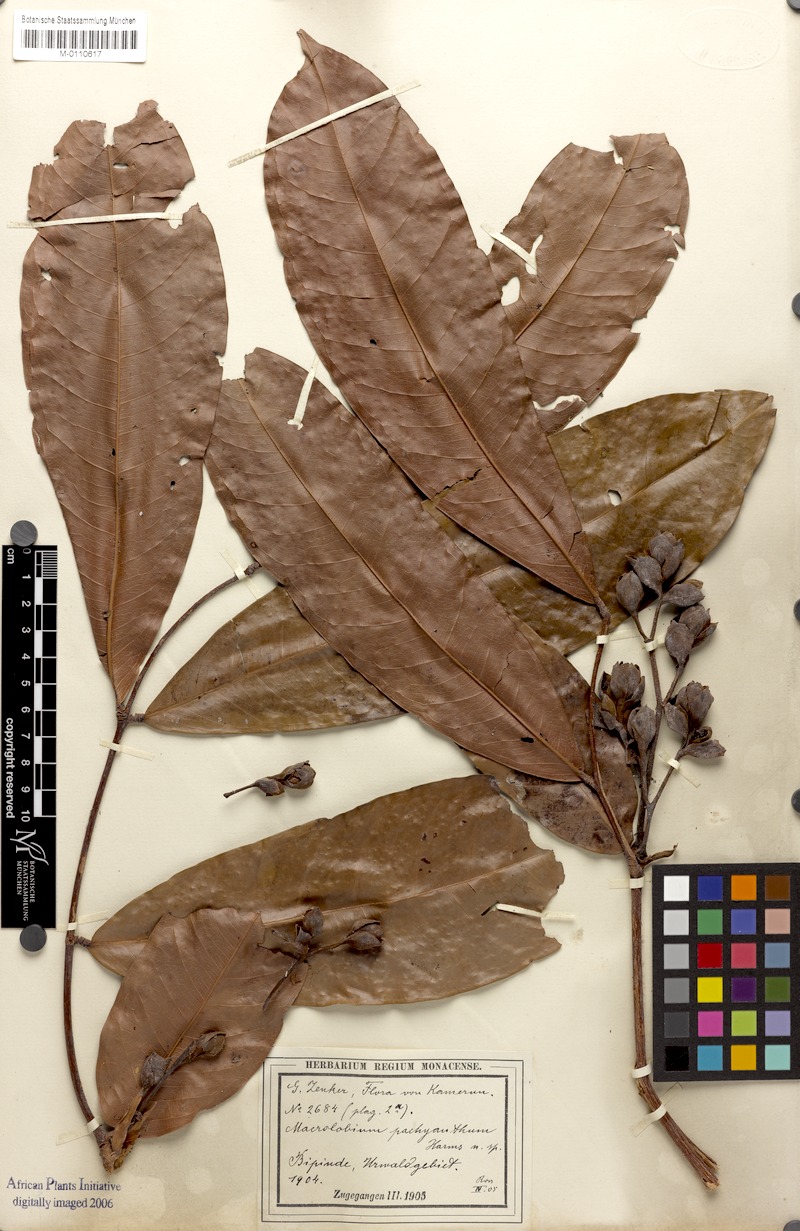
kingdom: Plantae
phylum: Tracheophyta
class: Magnoliopsida
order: Fabales
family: Fabaceae
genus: Gilbertiodendron
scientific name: Gilbertiodendron pachyanthum
